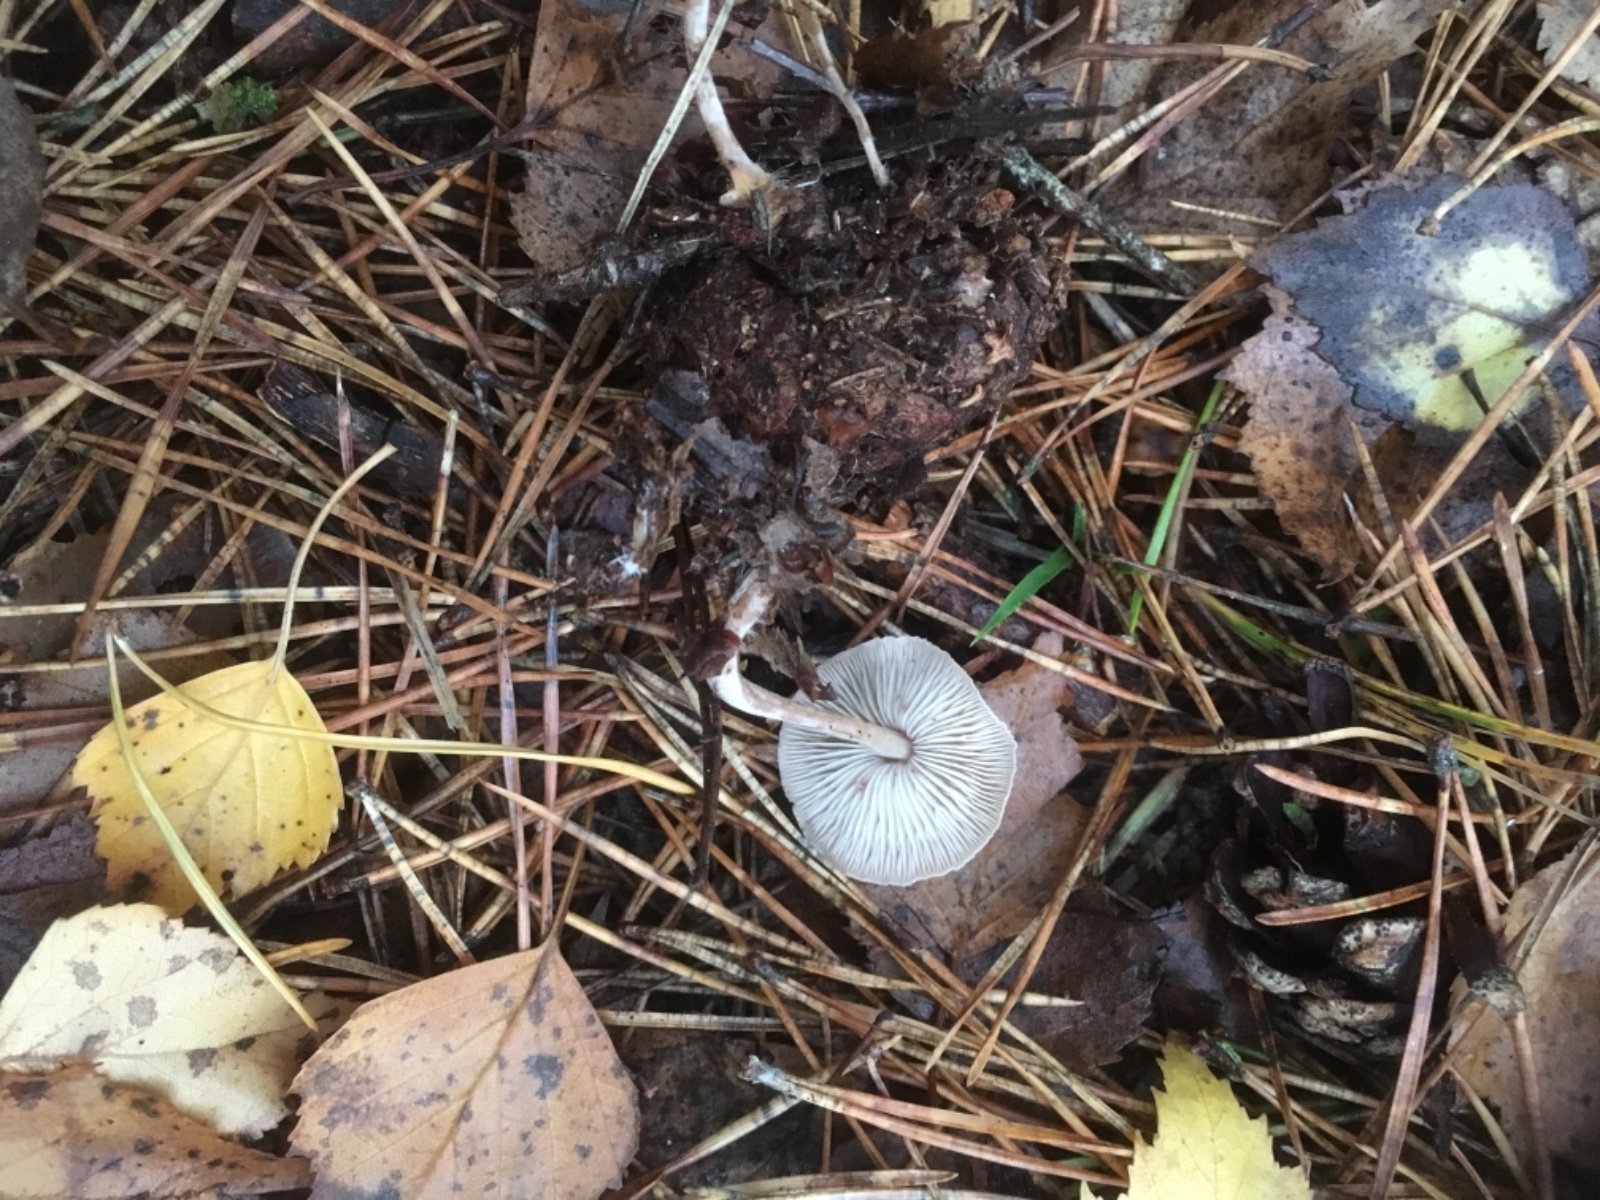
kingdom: Fungi
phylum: Basidiomycota
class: Agaricomycetes
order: Agaricales
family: Marasmiaceae
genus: Baeospora
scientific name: Baeospora myosura
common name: koglebruskhat
